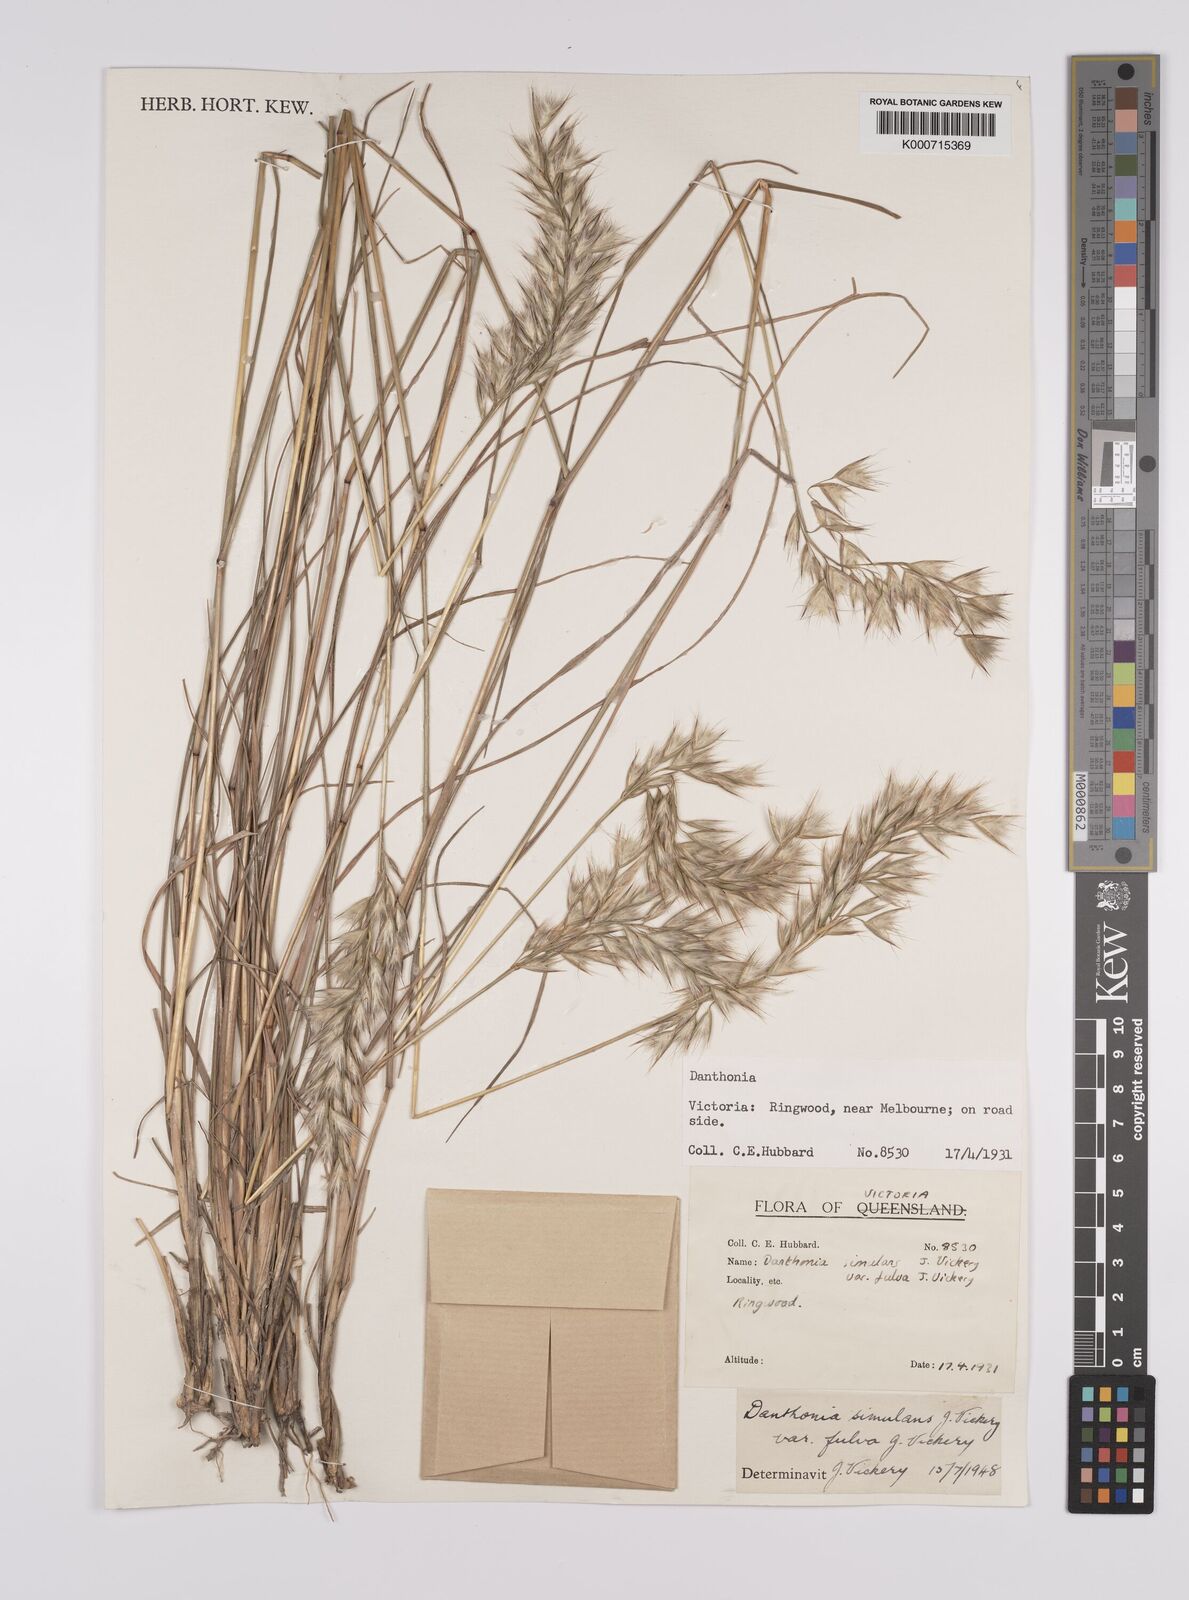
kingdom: Plantae
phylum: Tracheophyta
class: Liliopsida
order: Poales
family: Poaceae
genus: Rytidosperma
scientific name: Rytidosperma bipartitum
